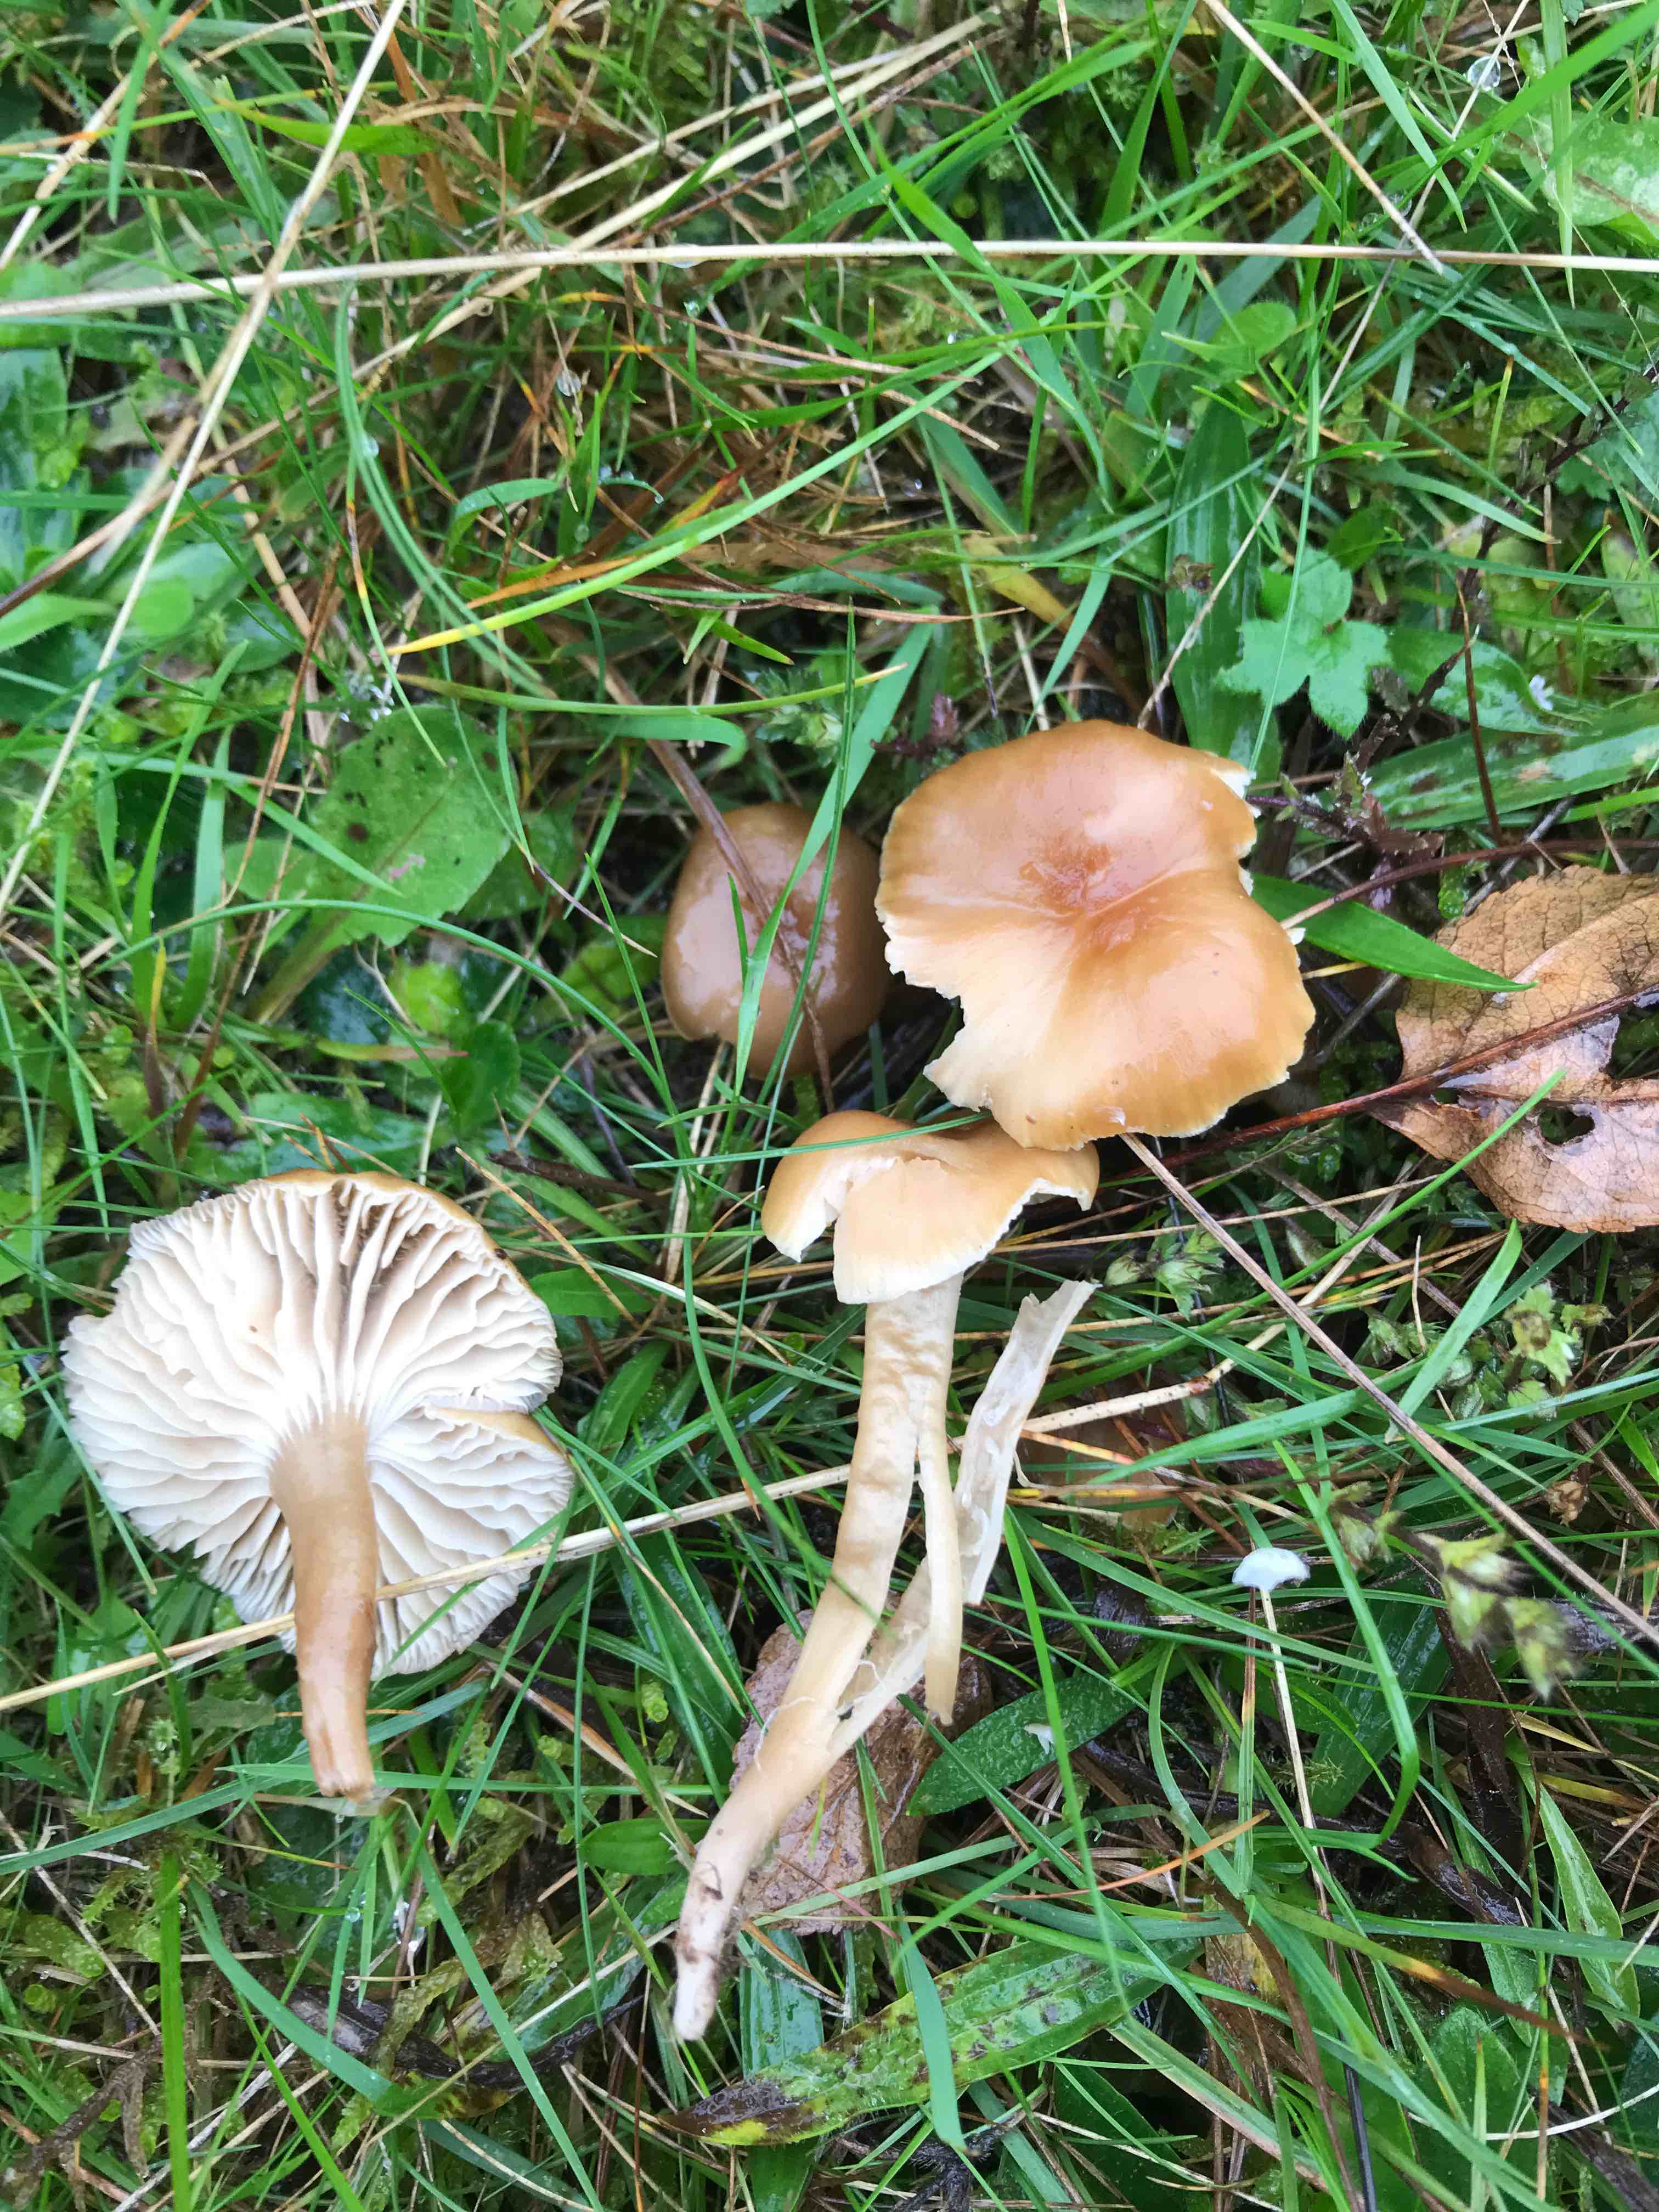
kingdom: Fungi
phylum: Basidiomycota
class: Agaricomycetes
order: Agaricales
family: Clavariaceae
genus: Camarophyllopsis
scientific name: Camarophyllopsis schulzeri
